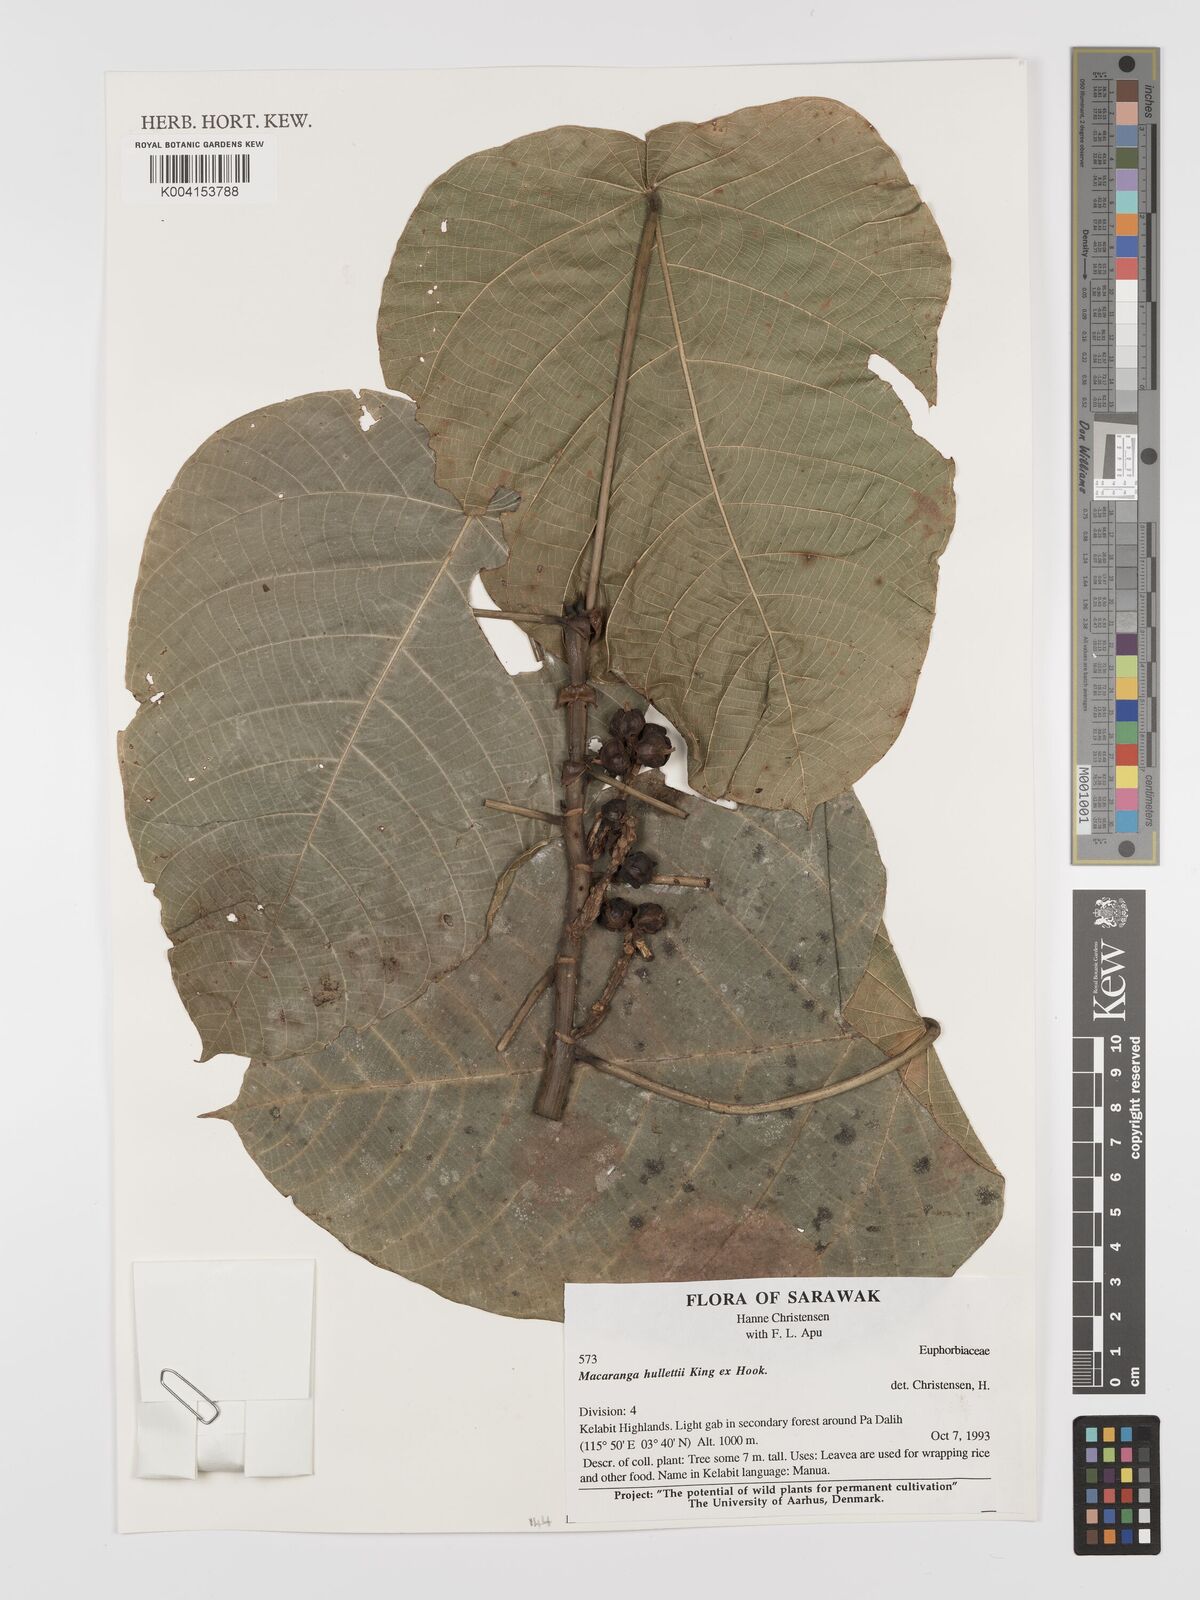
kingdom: Plantae
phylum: Tracheophyta
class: Magnoliopsida
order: Malpighiales
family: Euphorbiaceae
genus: Macaranga
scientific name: Macaranga hullettii
